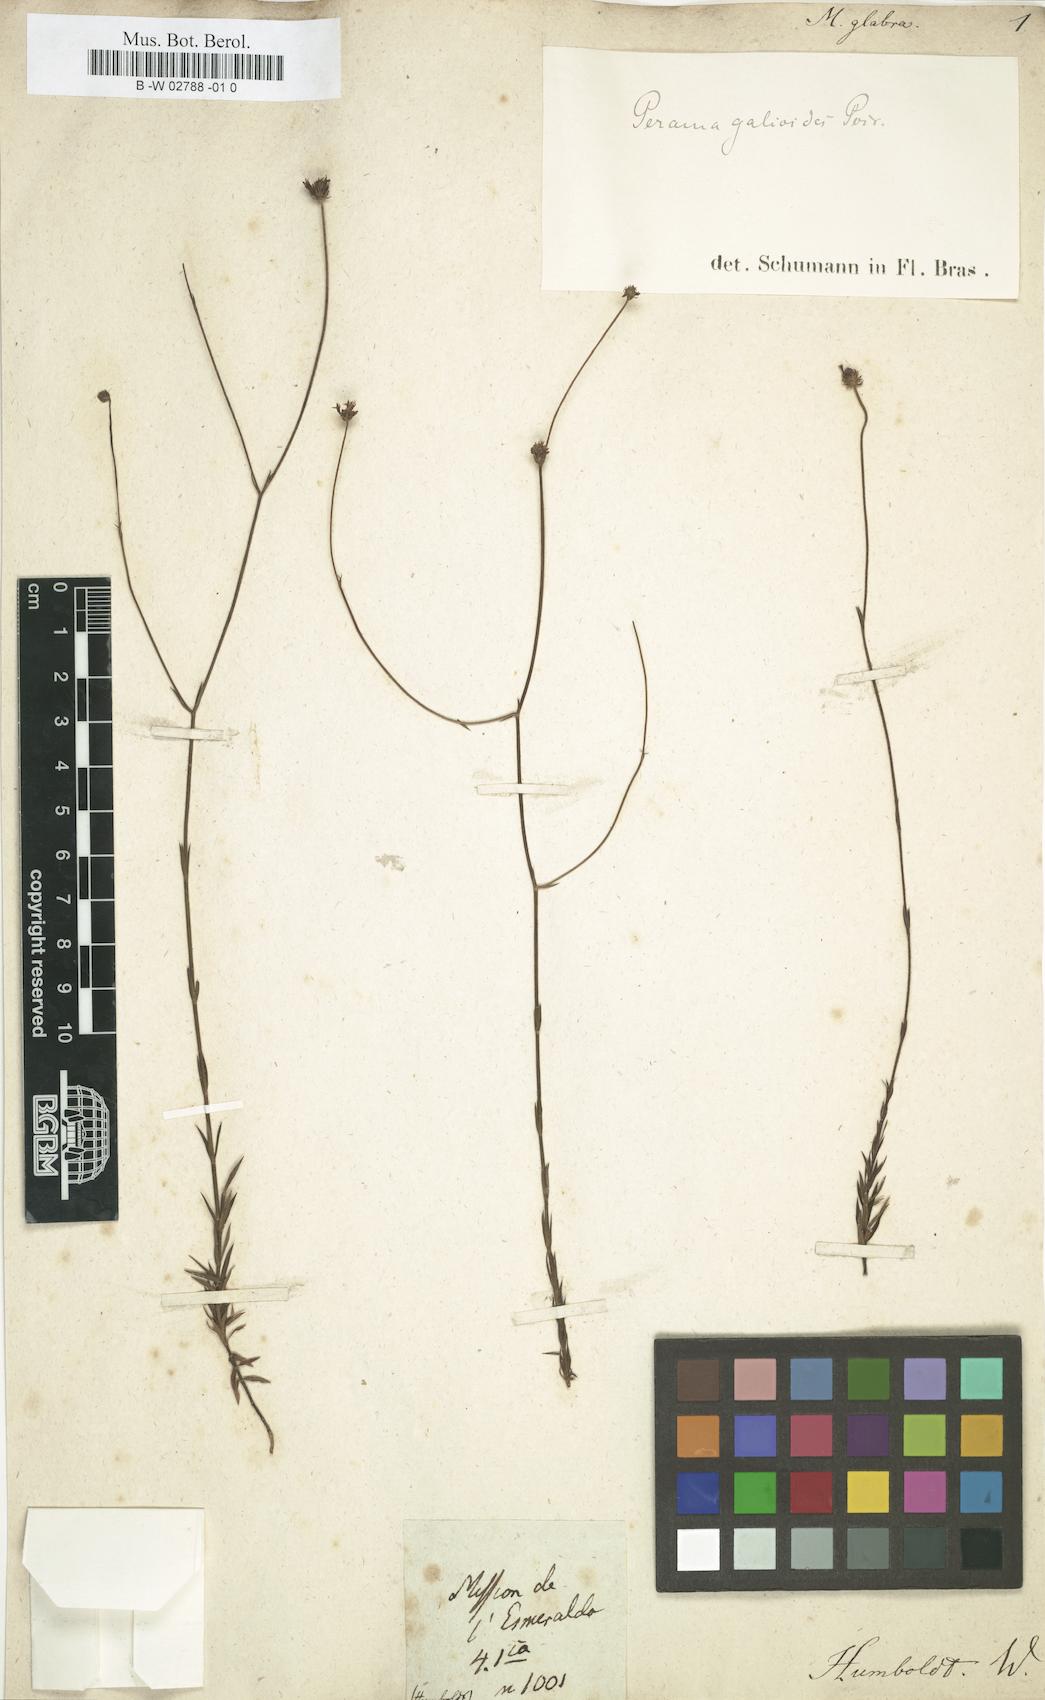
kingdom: Plantae
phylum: Tracheophyta
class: Magnoliopsida
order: Gentianales
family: Rubiaceae
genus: Perama
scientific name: Perama
